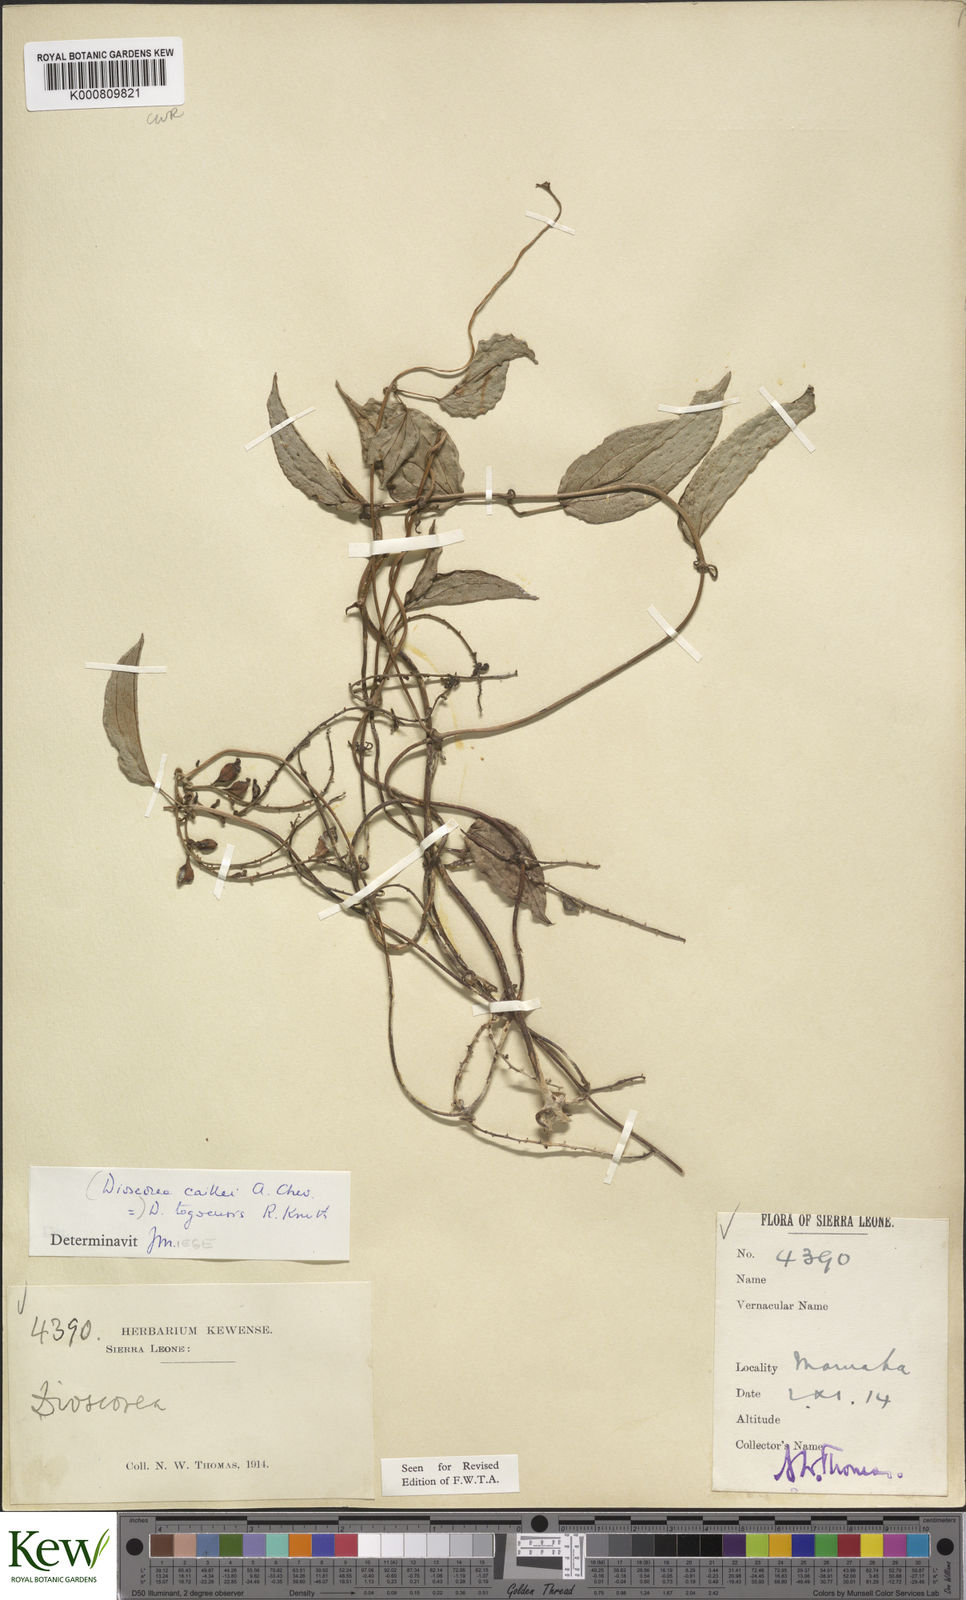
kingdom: Plantae
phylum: Tracheophyta
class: Liliopsida
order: Dioscoreales
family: Dioscoreaceae
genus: Dioscorea
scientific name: Dioscorea togoensis
